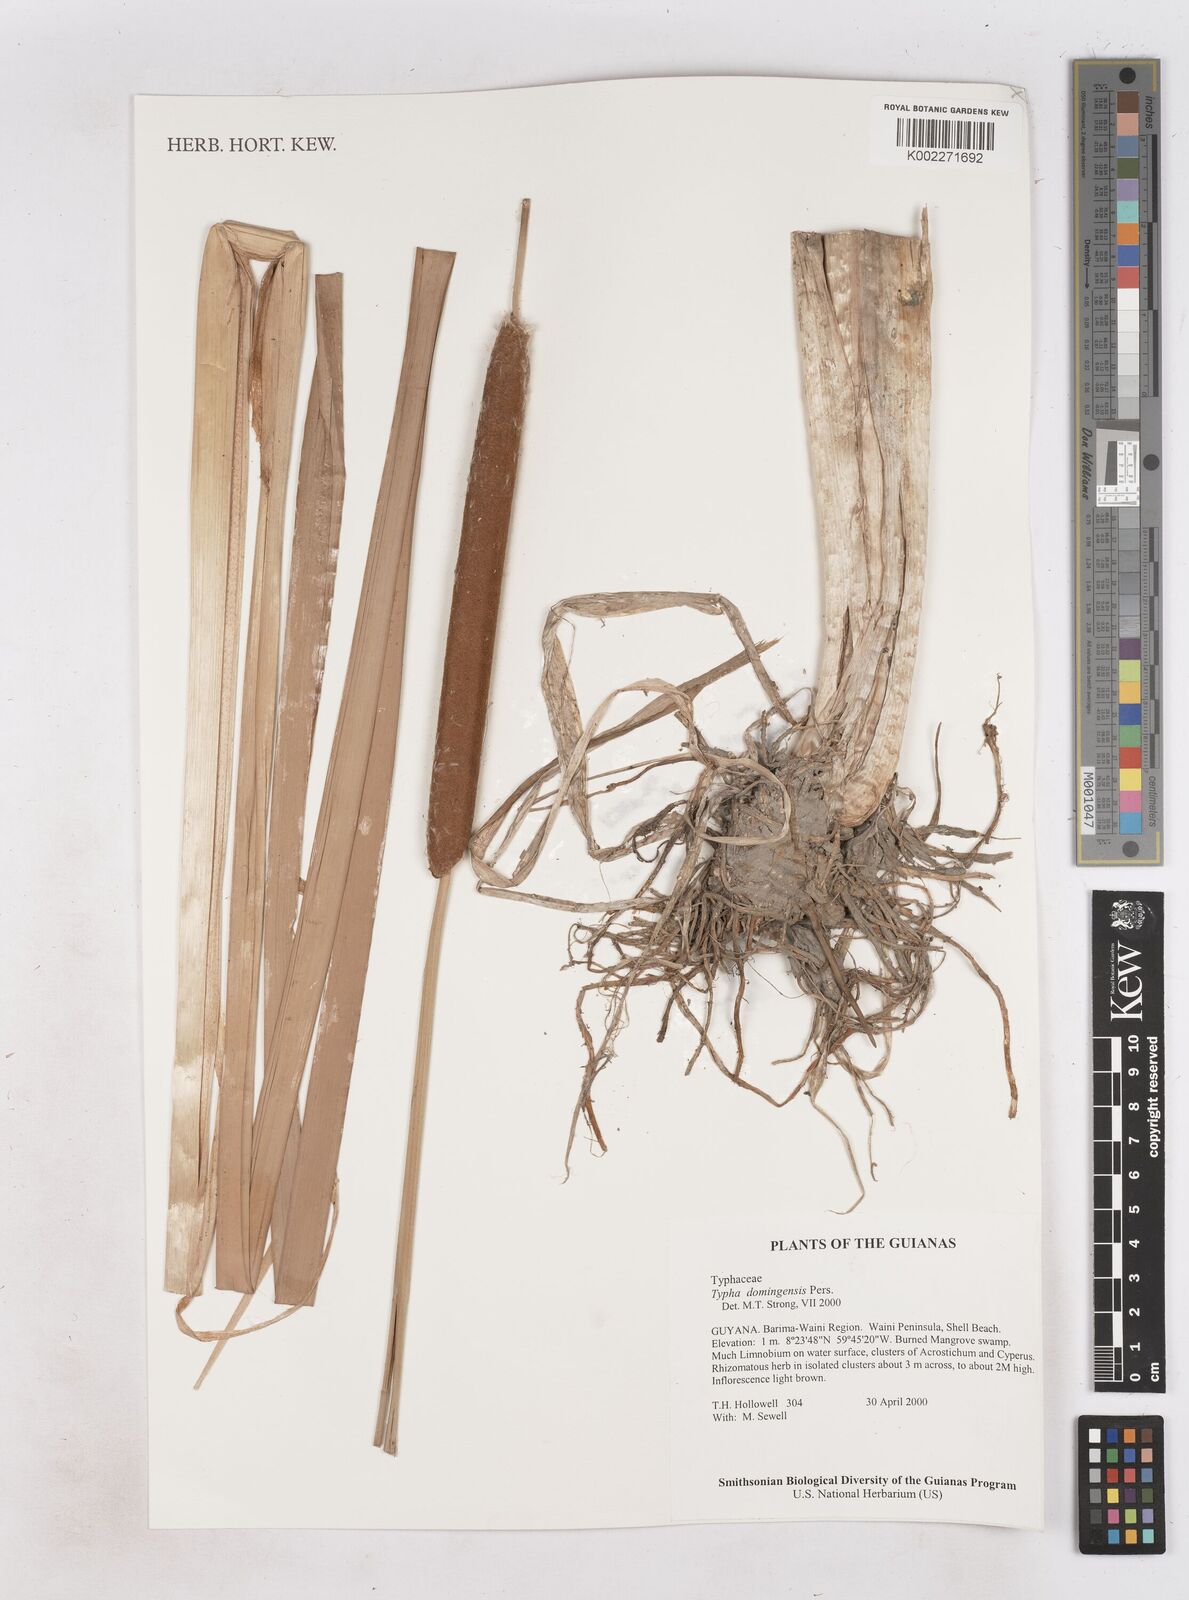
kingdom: Plantae
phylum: Tracheophyta
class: Liliopsida
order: Poales
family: Typhaceae
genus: Typha
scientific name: Typha domingensis
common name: Southern cattail
